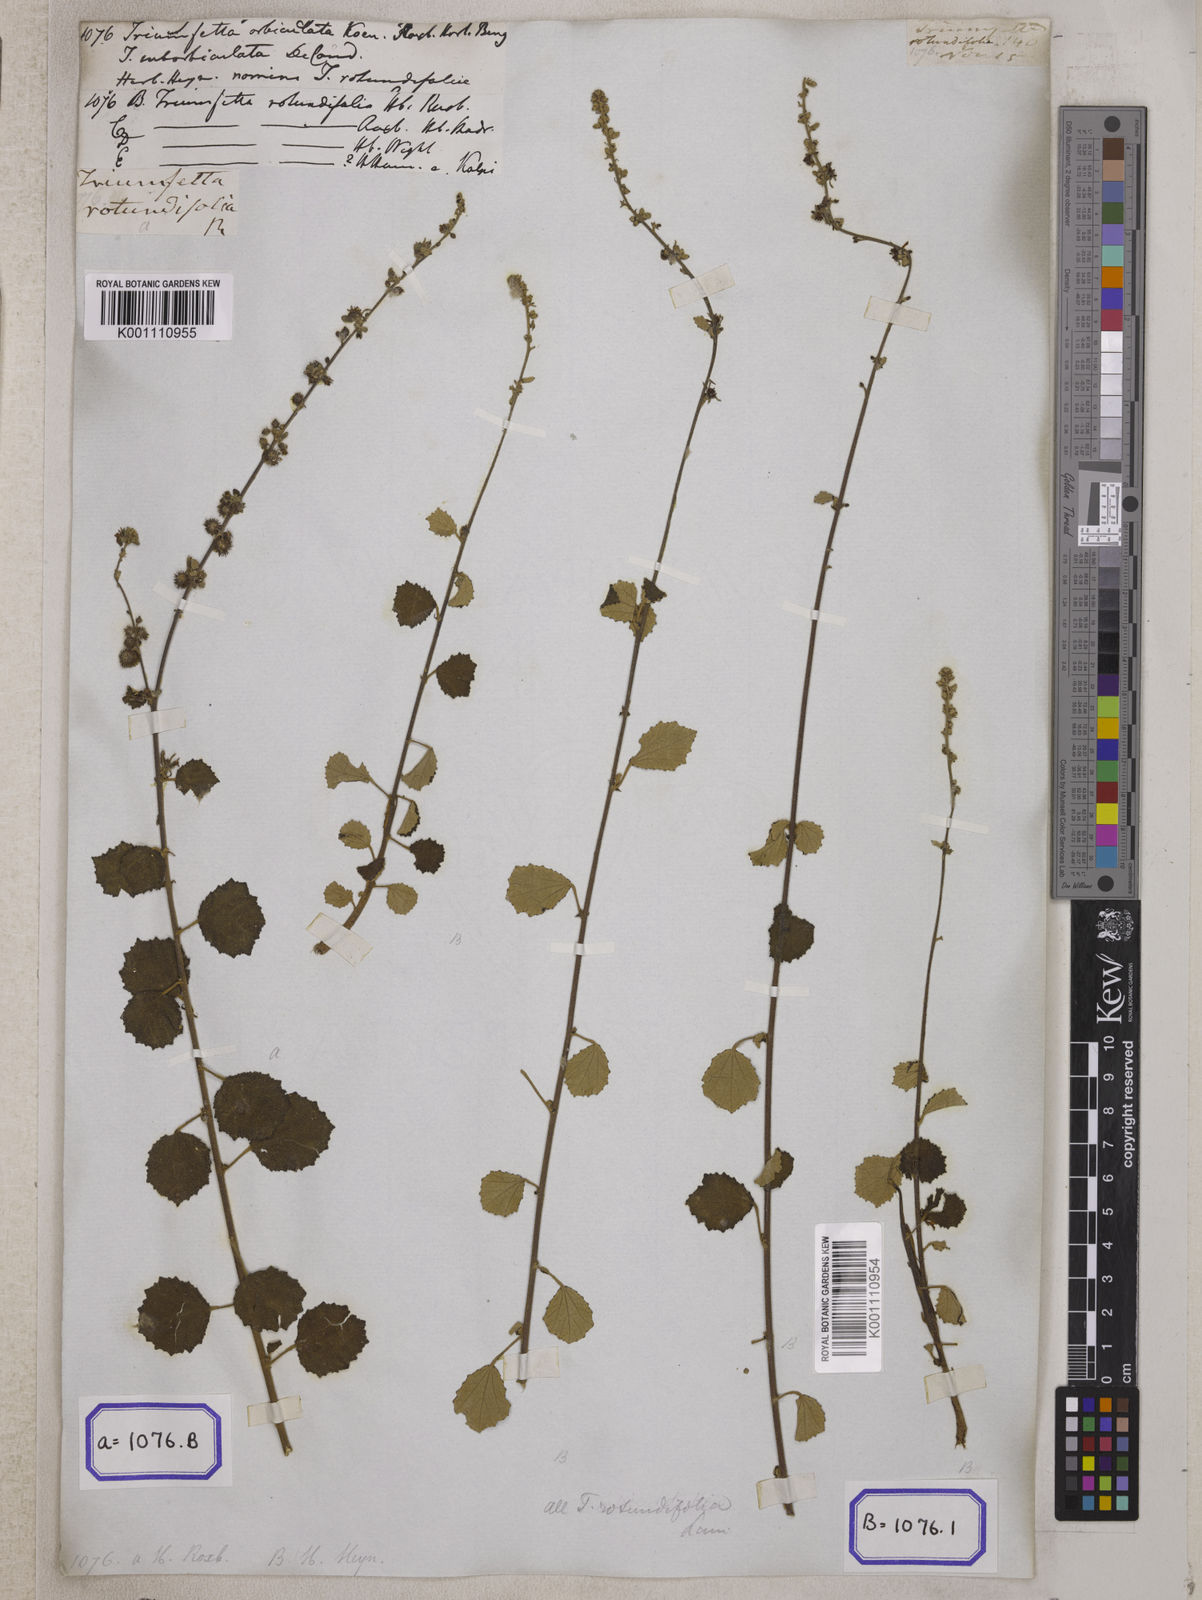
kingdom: Plantae
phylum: Tracheophyta
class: Magnoliopsida
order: Malvales
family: Malvaceae
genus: Triumfetta
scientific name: Triumfetta pilosa
